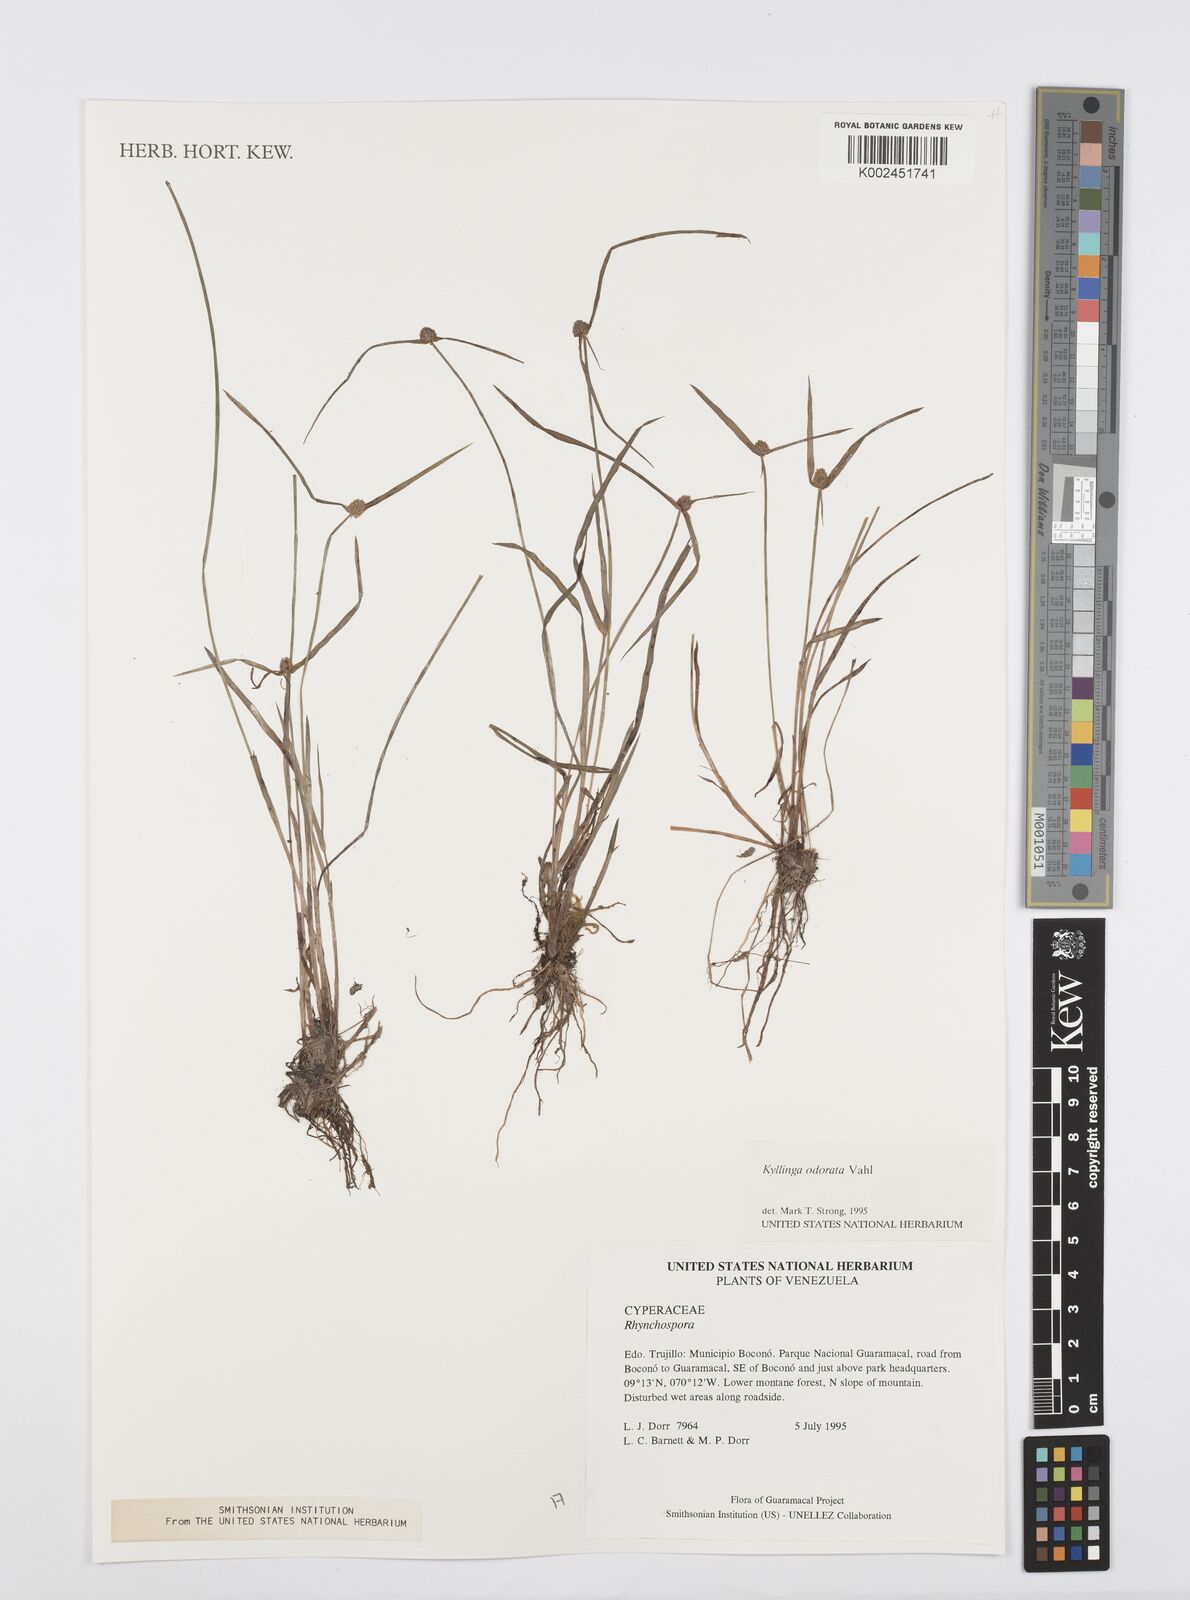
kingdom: Plantae
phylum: Tracheophyta
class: Liliopsida
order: Poales
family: Cyperaceae
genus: Cyperus
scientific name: Cyperus
